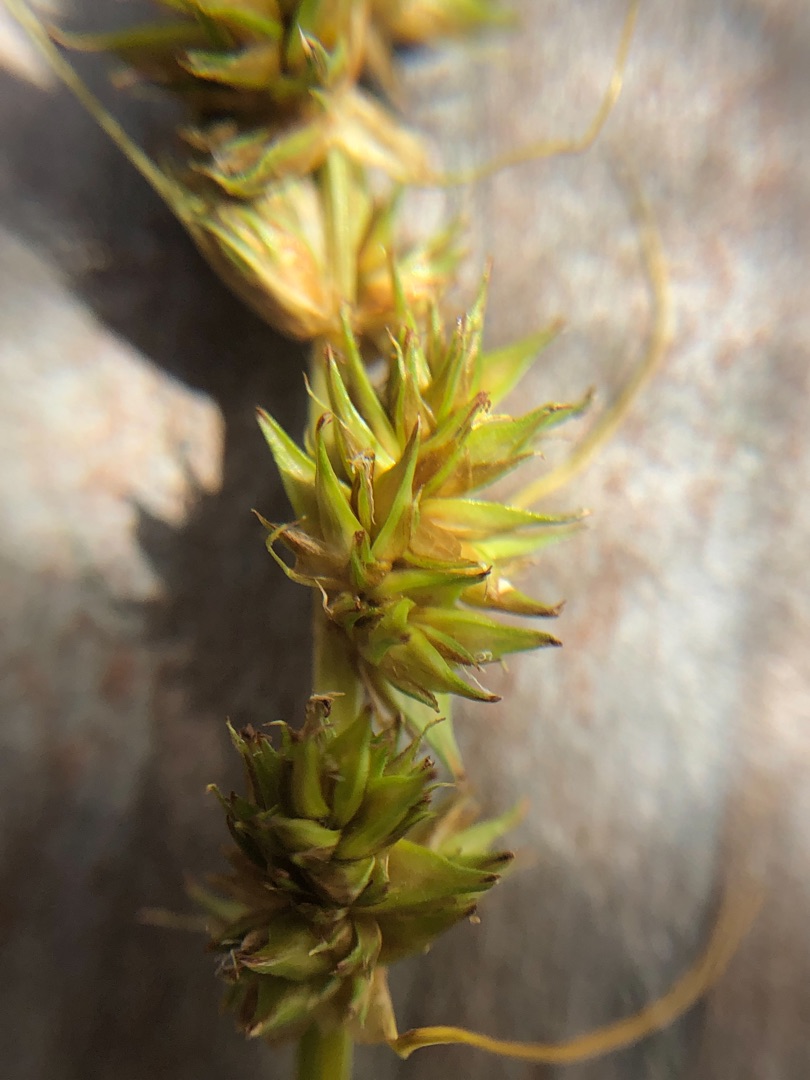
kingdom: Plantae
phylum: Tracheophyta
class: Liliopsida
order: Poales
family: Cyperaceae
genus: Carex
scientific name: Carex otrubae
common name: Sylt-star
